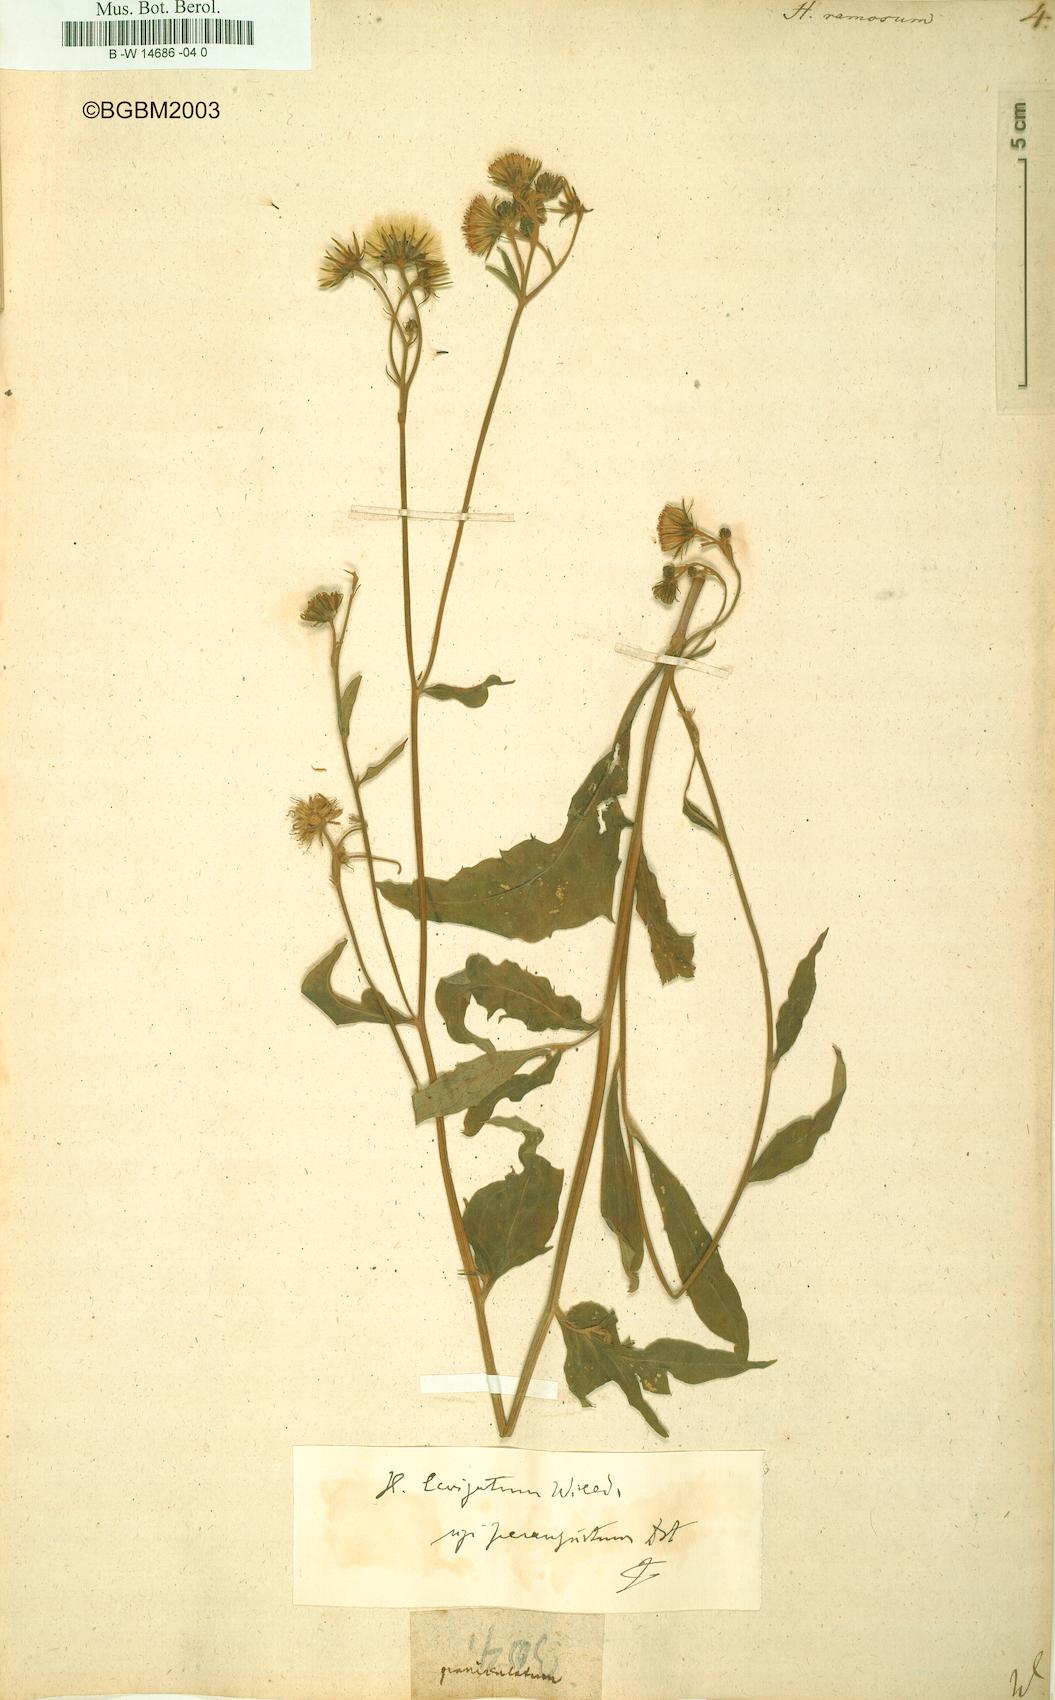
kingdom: Plantae
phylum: Tracheophyta
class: Magnoliopsida
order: Asterales
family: Asteraceae
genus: Hieracium
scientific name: Hieracium ramosum
